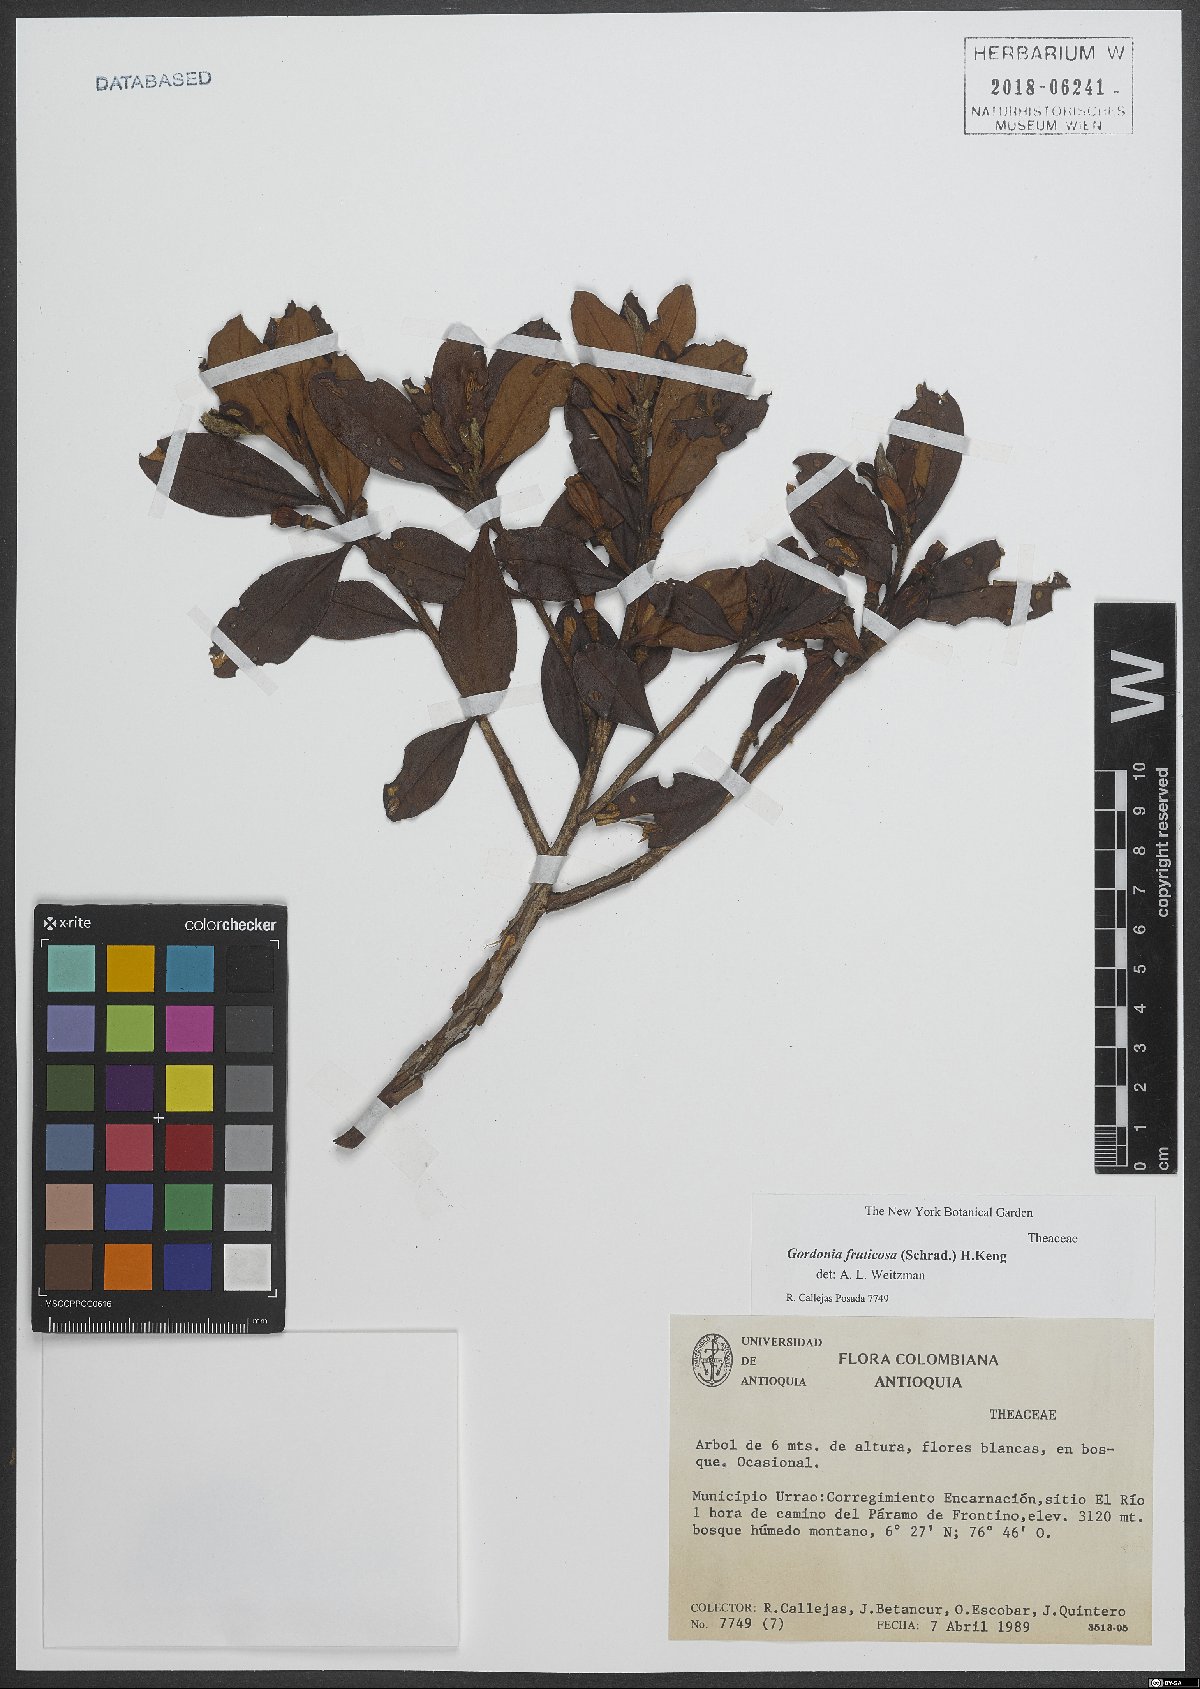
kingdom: Plantae
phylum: Tracheophyta
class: Magnoliopsida
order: Ericales
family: Theaceae
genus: Gordonia
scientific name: Gordonia fruticosa
